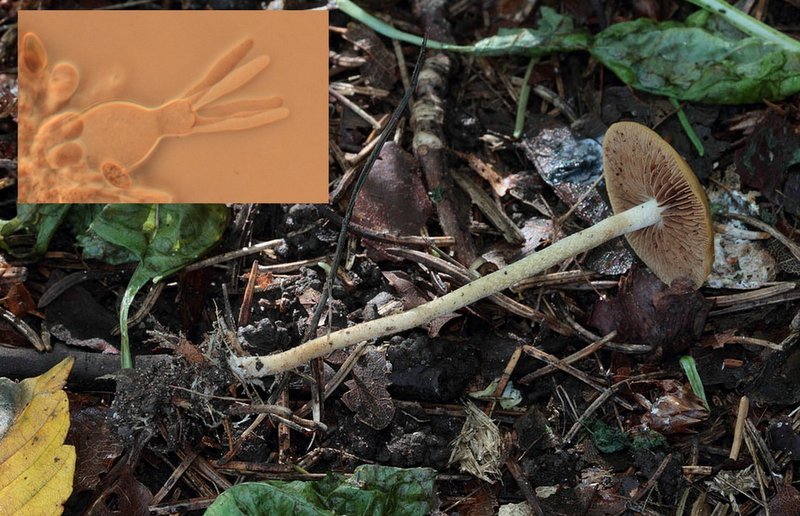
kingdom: Fungi
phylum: Basidiomycota
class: Agaricomycetes
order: Agaricales
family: Strophariaceae
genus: Agrocybe
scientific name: Agrocybe arvalis
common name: rodslående agerhat
